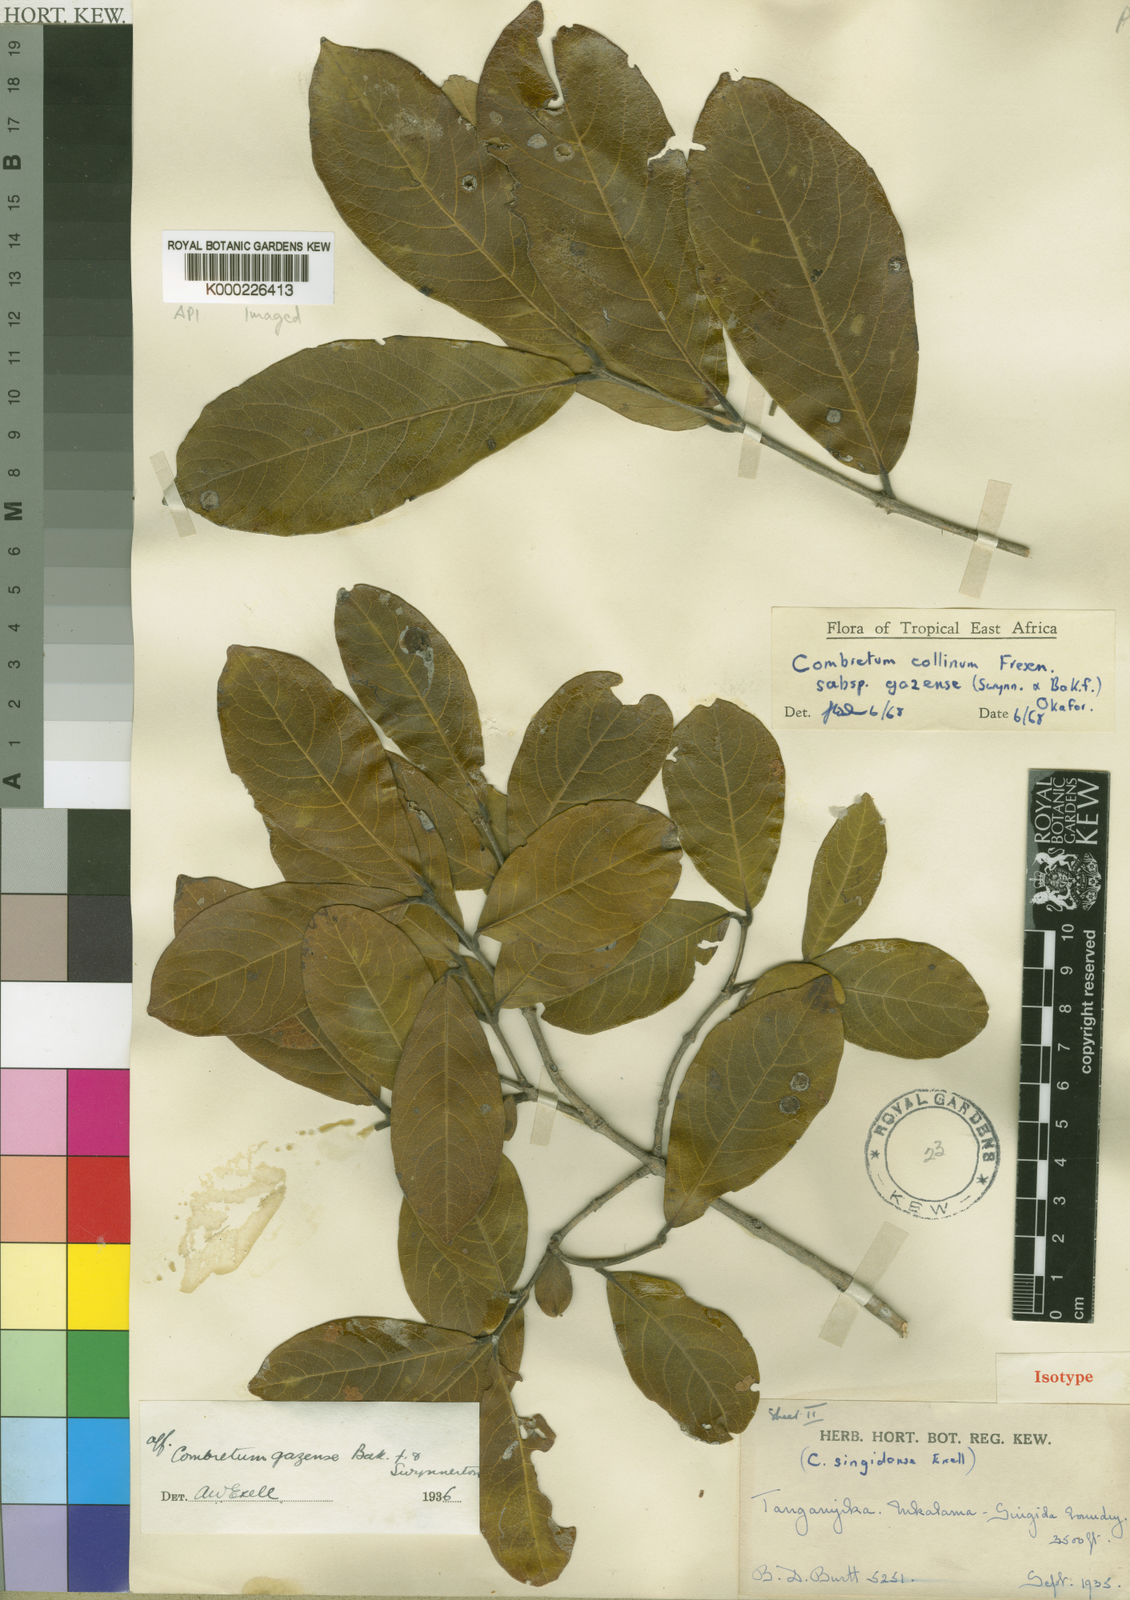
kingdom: Plantae
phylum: Tracheophyta
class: Magnoliopsida
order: Myrtales
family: Combretaceae
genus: Combretum
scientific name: Combretum collinum
